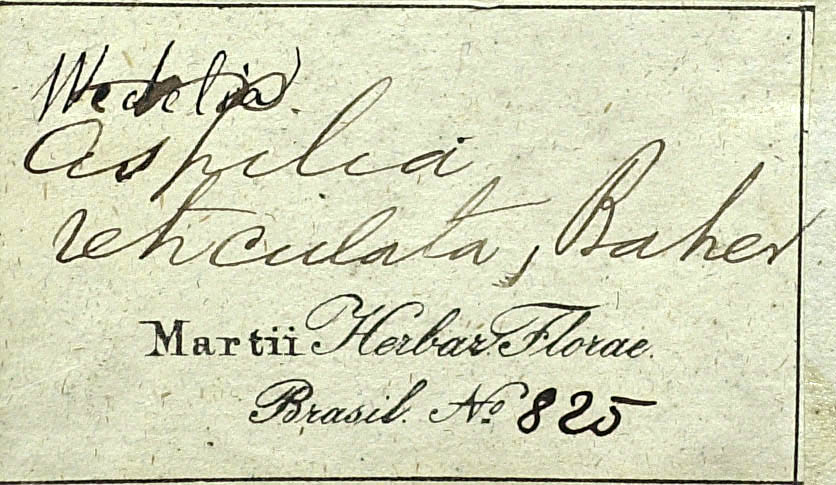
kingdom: Plantae
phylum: Tracheophyta
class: Magnoliopsida
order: Asterales
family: Asteraceae
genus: Wedelia
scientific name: Wedelia frioana
